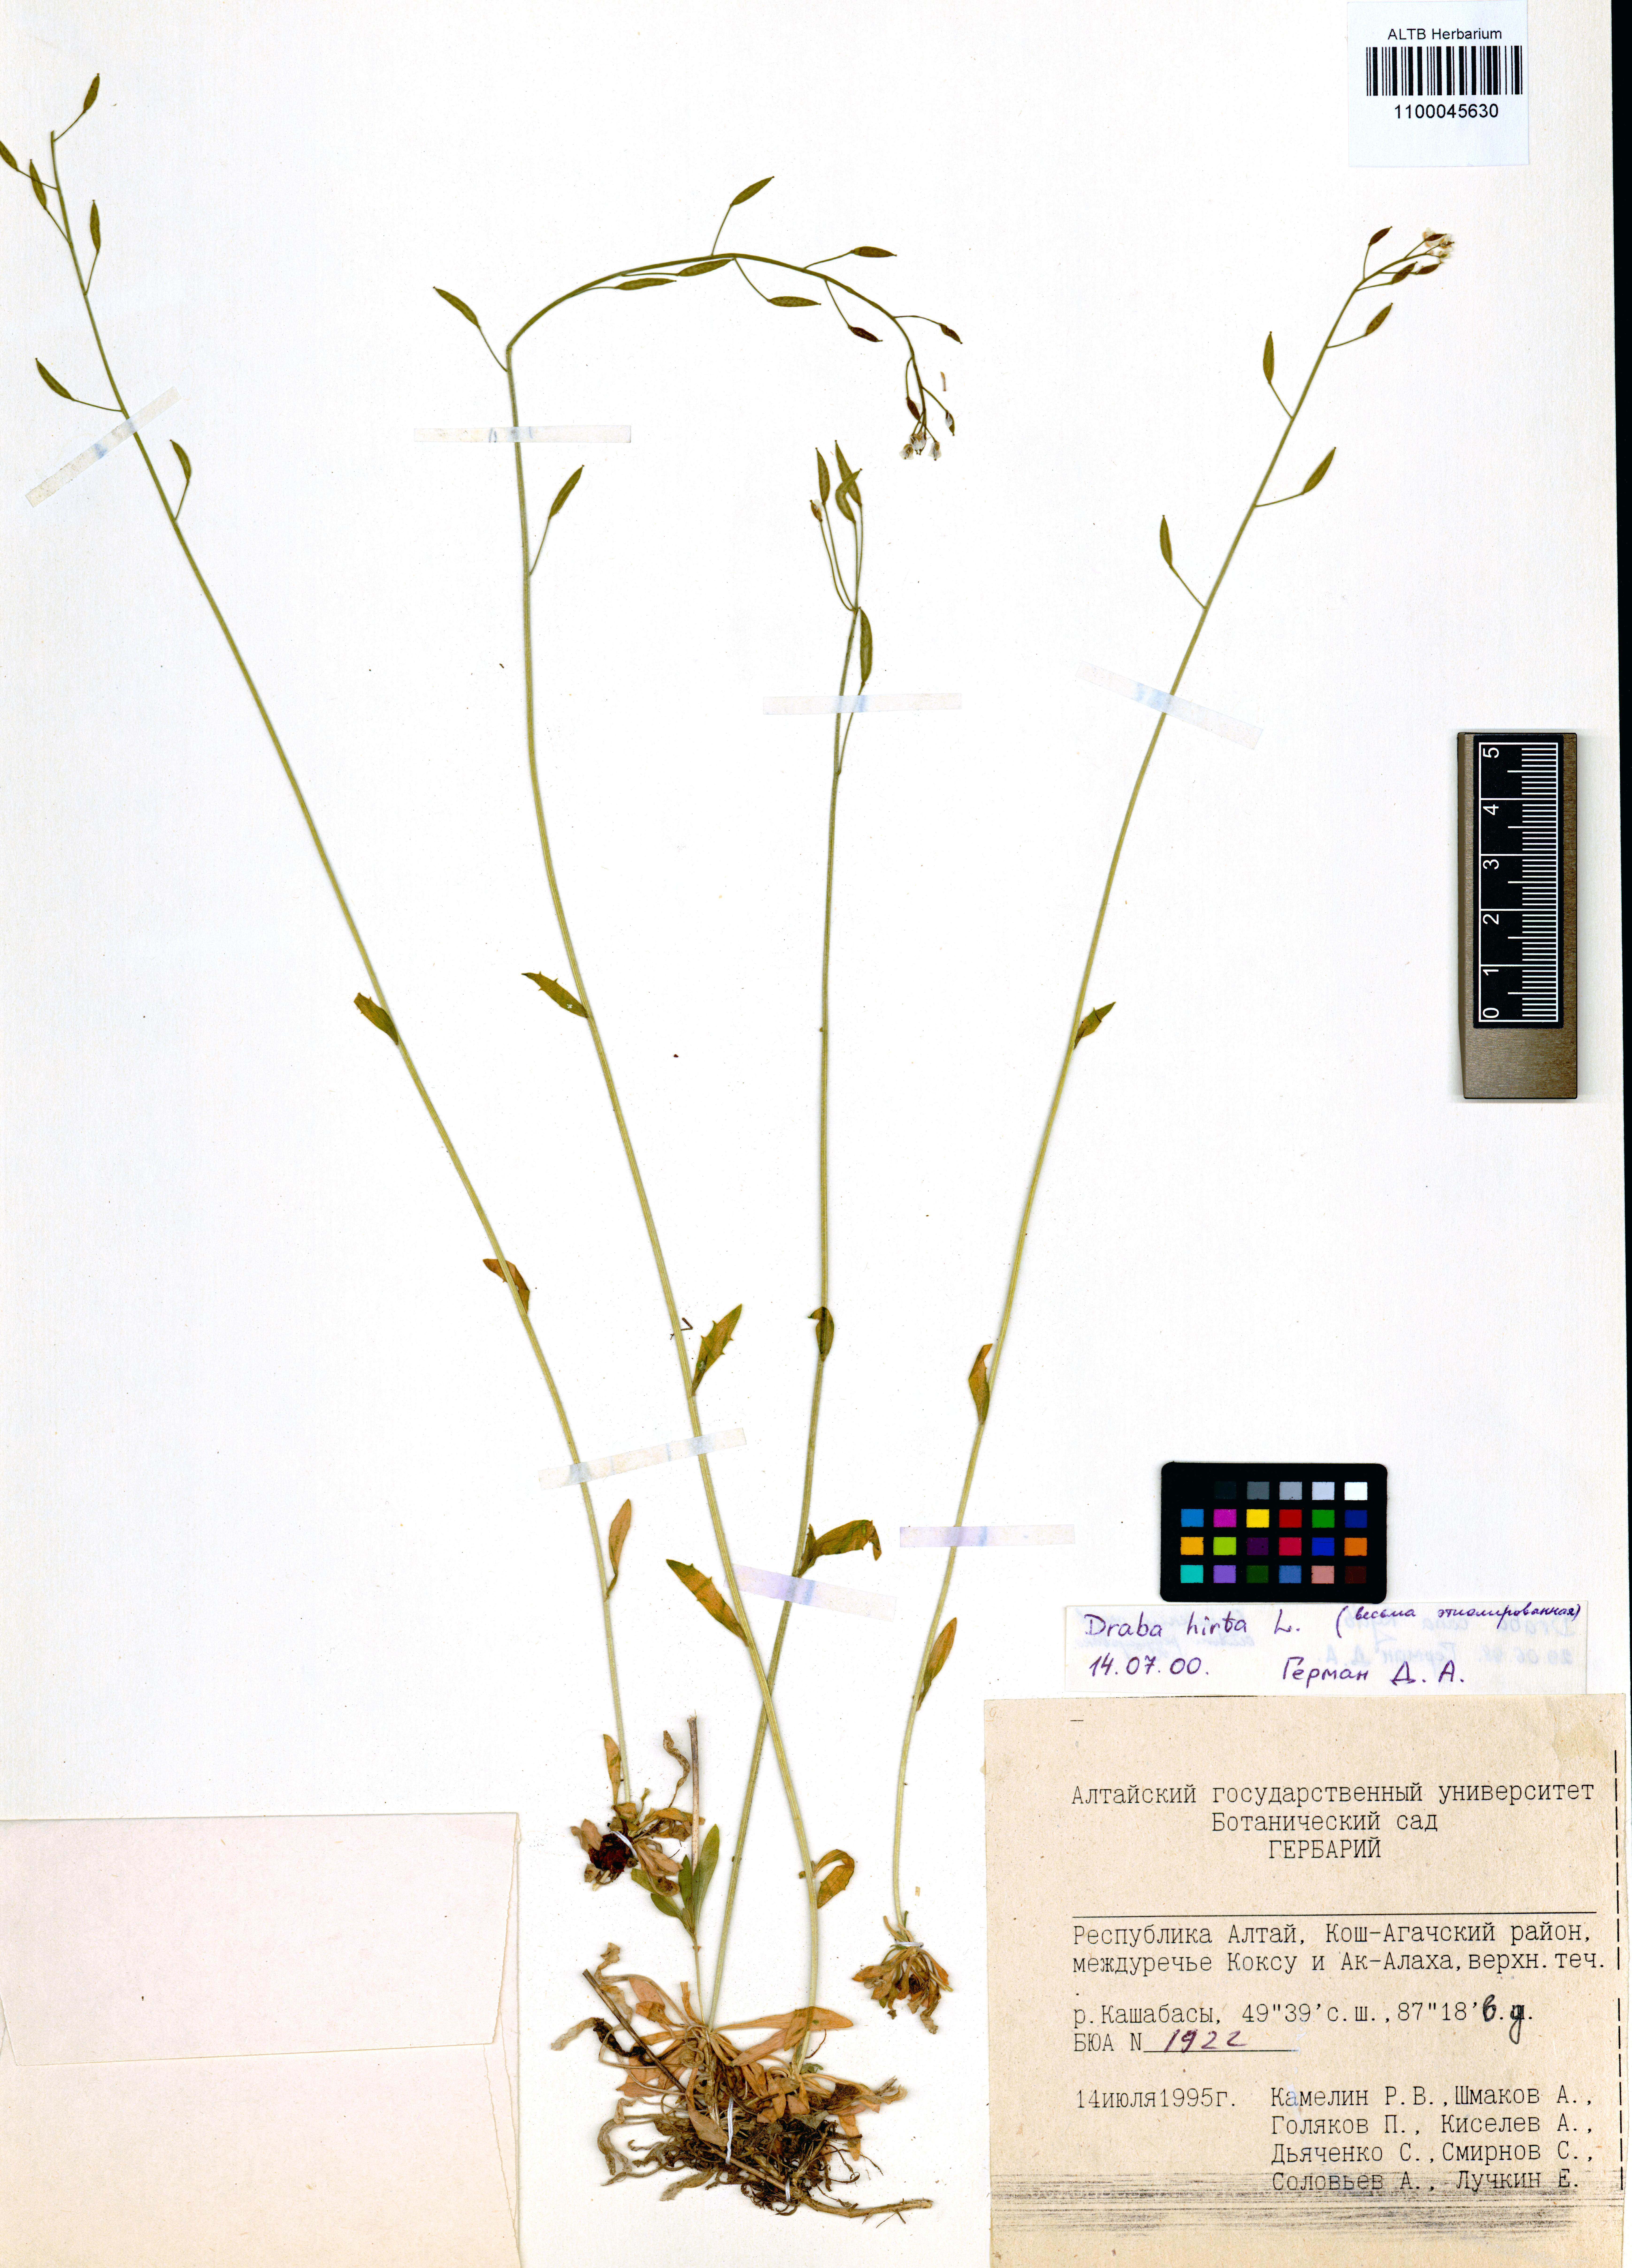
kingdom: Plantae
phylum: Tracheophyta
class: Magnoliopsida
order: Brassicales
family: Brassicaceae
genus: Draba
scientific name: Draba glabella
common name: Glaucous draba
